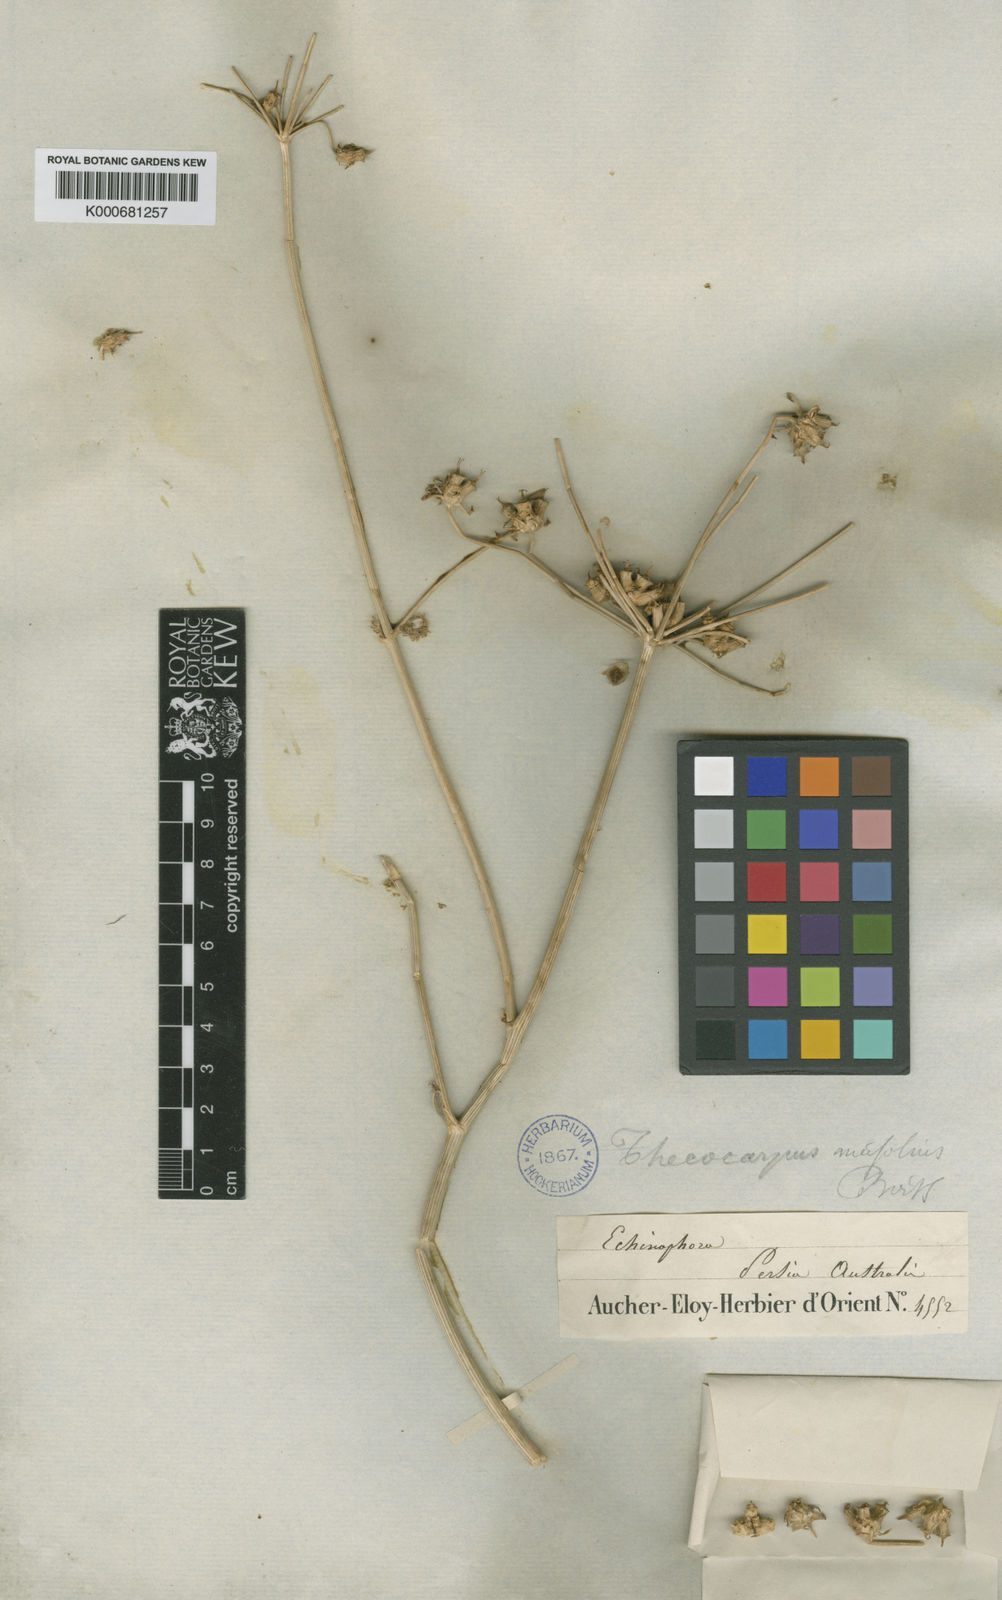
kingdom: Plantae
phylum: Tracheophyta
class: Magnoliopsida
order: Apiales
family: Apiaceae
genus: Thecocarpus
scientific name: Thecocarpus
